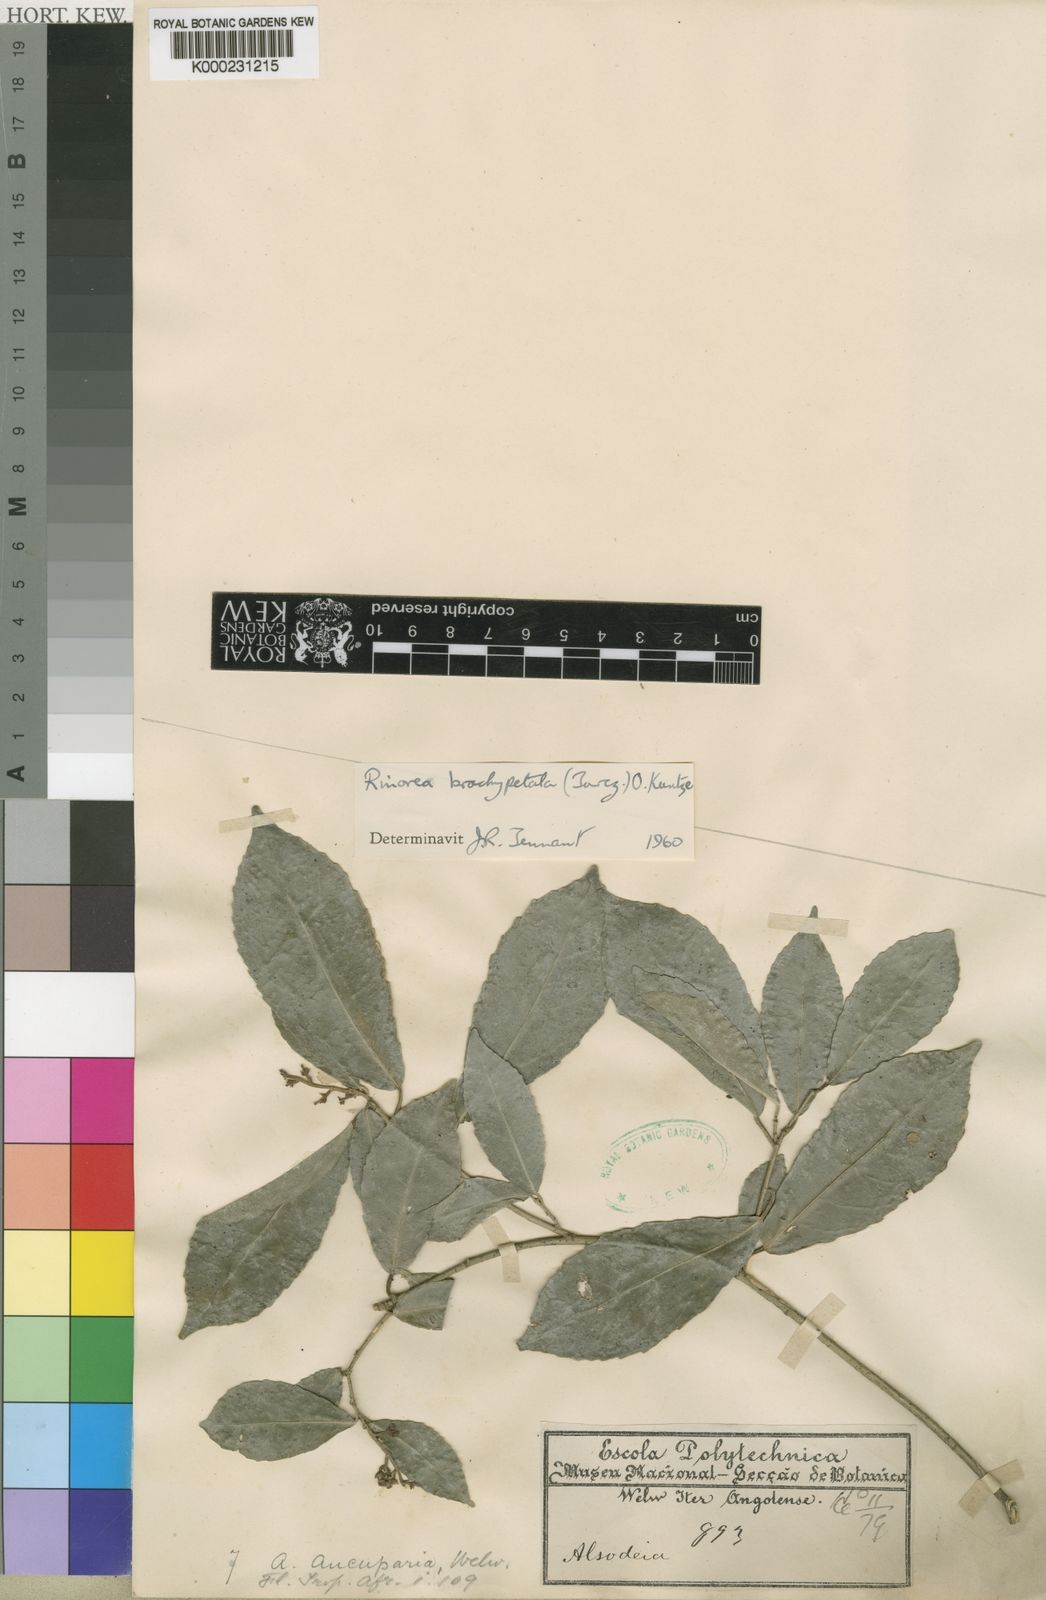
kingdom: Plantae
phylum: Tracheophyta
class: Magnoliopsida
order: Malpighiales
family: Violaceae
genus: Rinorea
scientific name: Rinorea brachypetala
